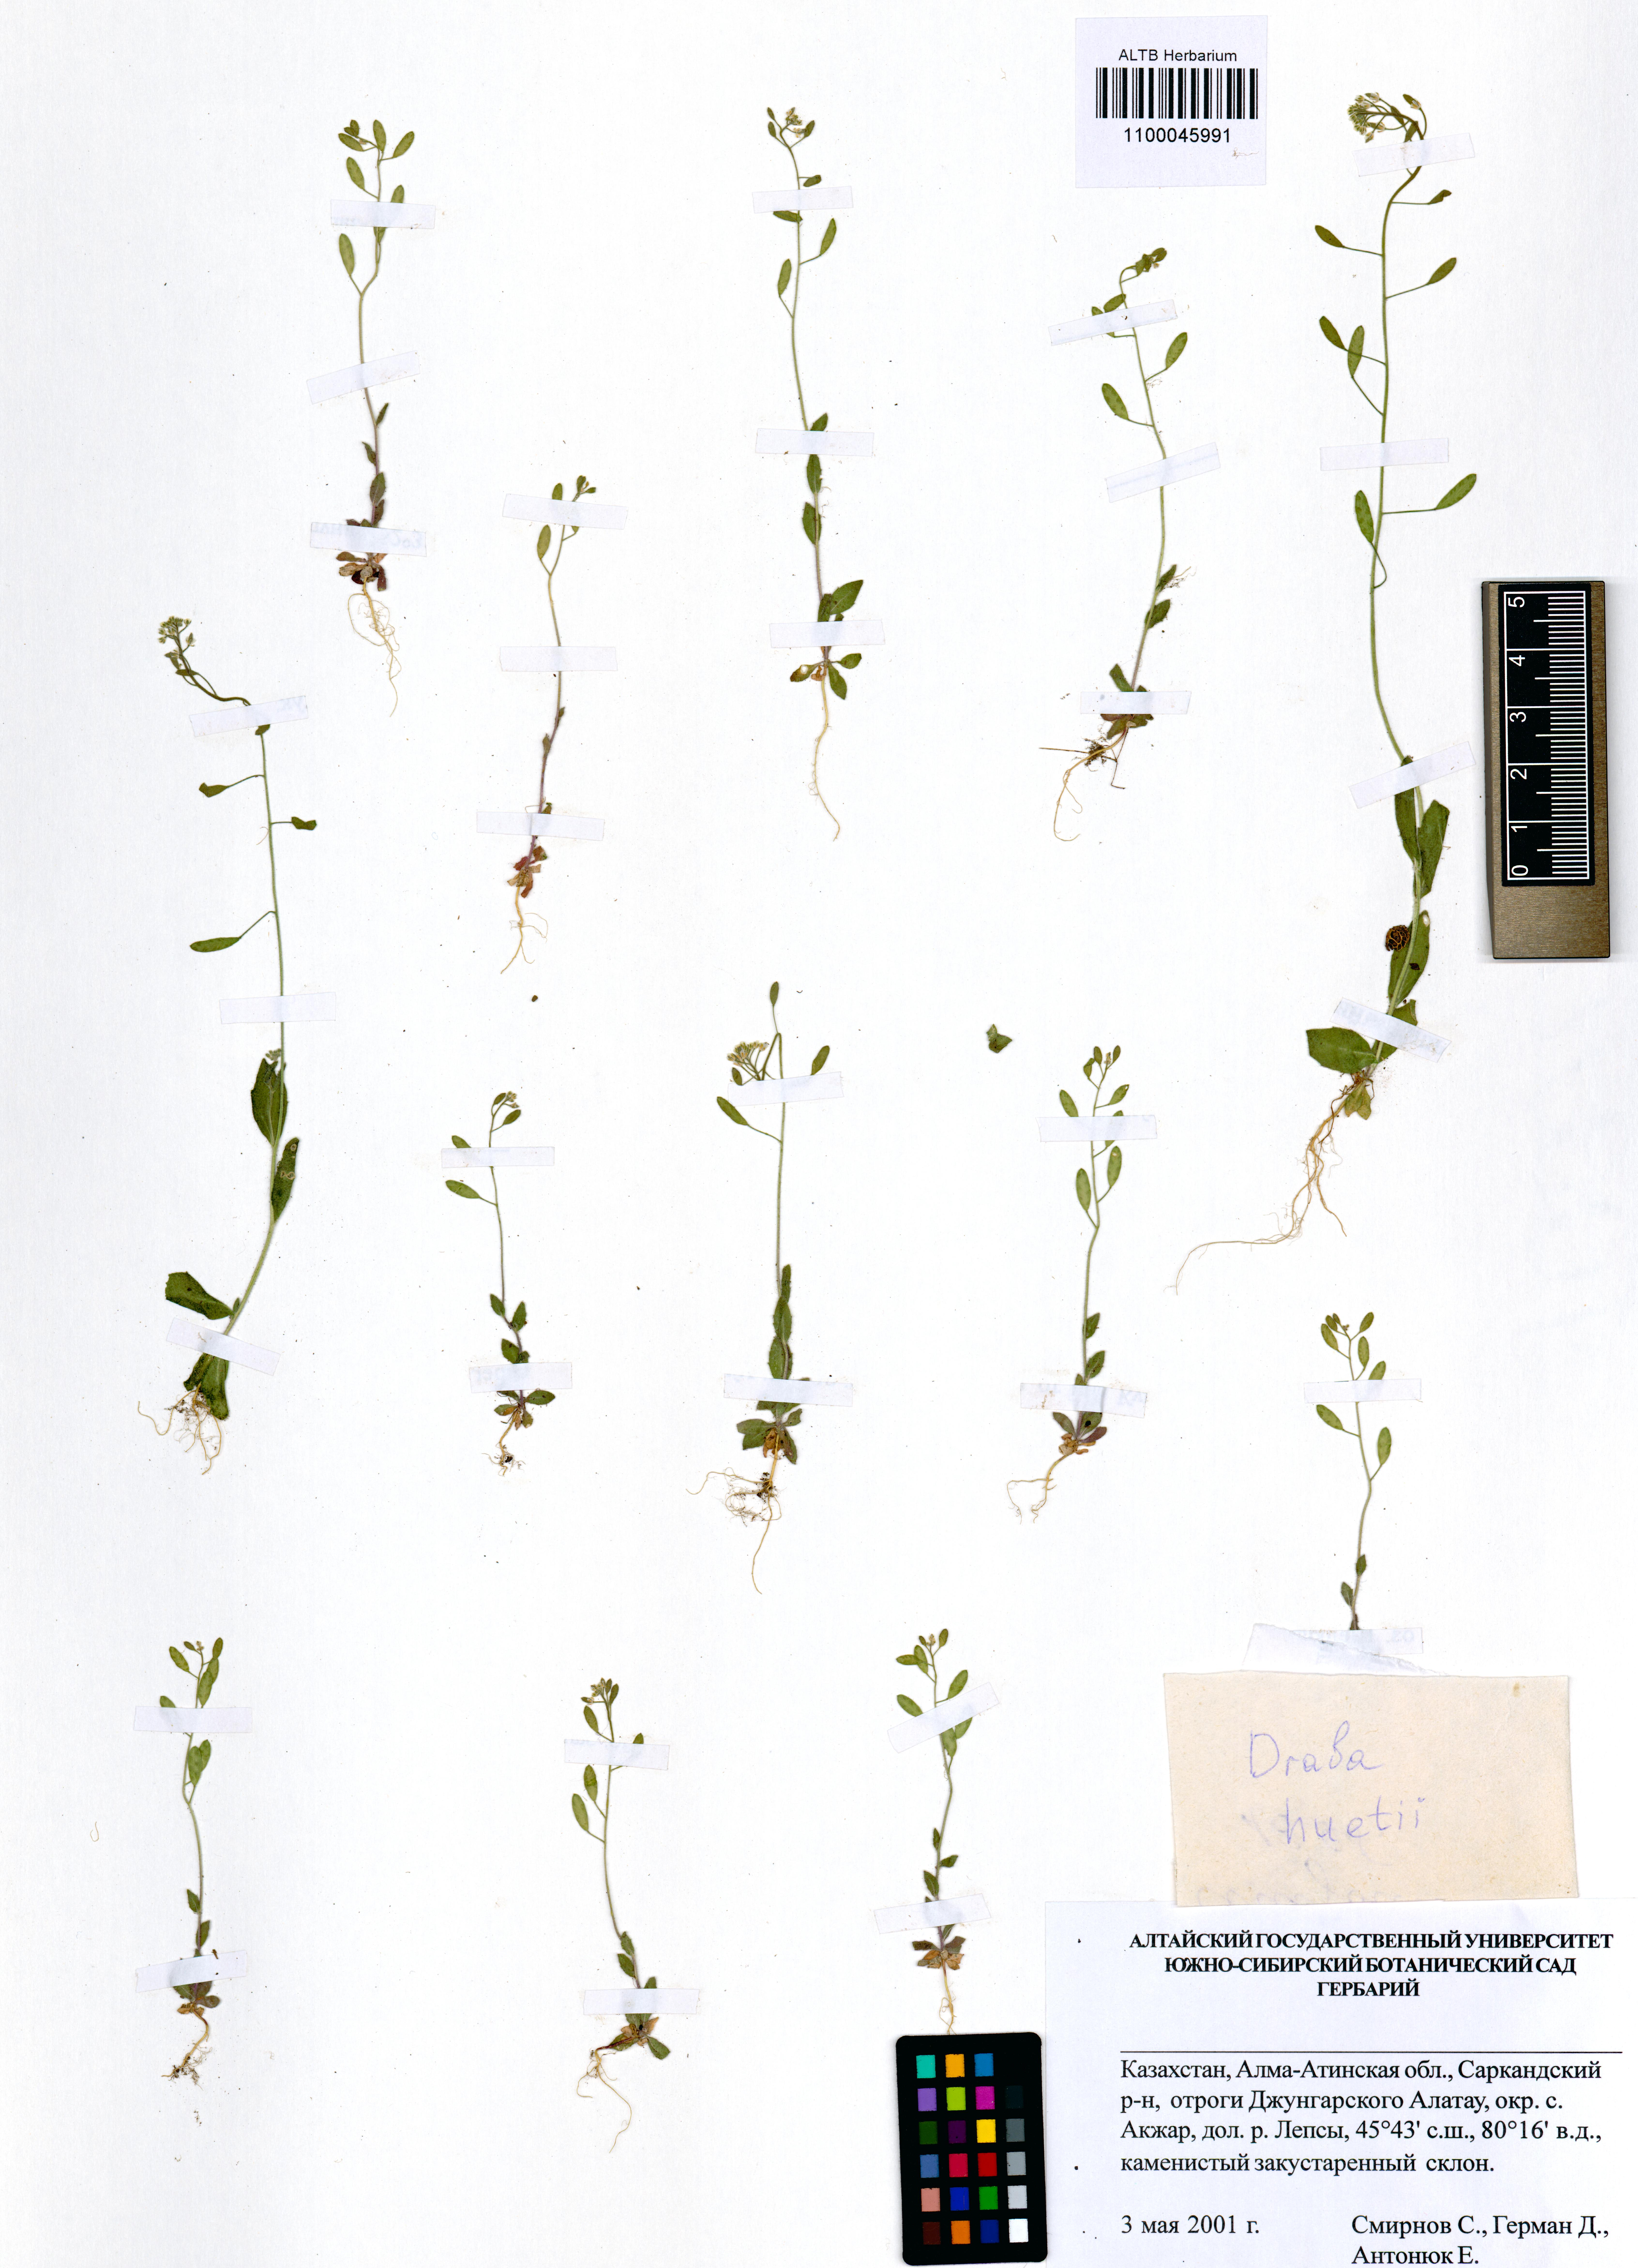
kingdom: Plantae
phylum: Tracheophyta
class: Magnoliopsida
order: Brassicales
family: Brassicaceae
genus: Draba
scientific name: Draba huetii
